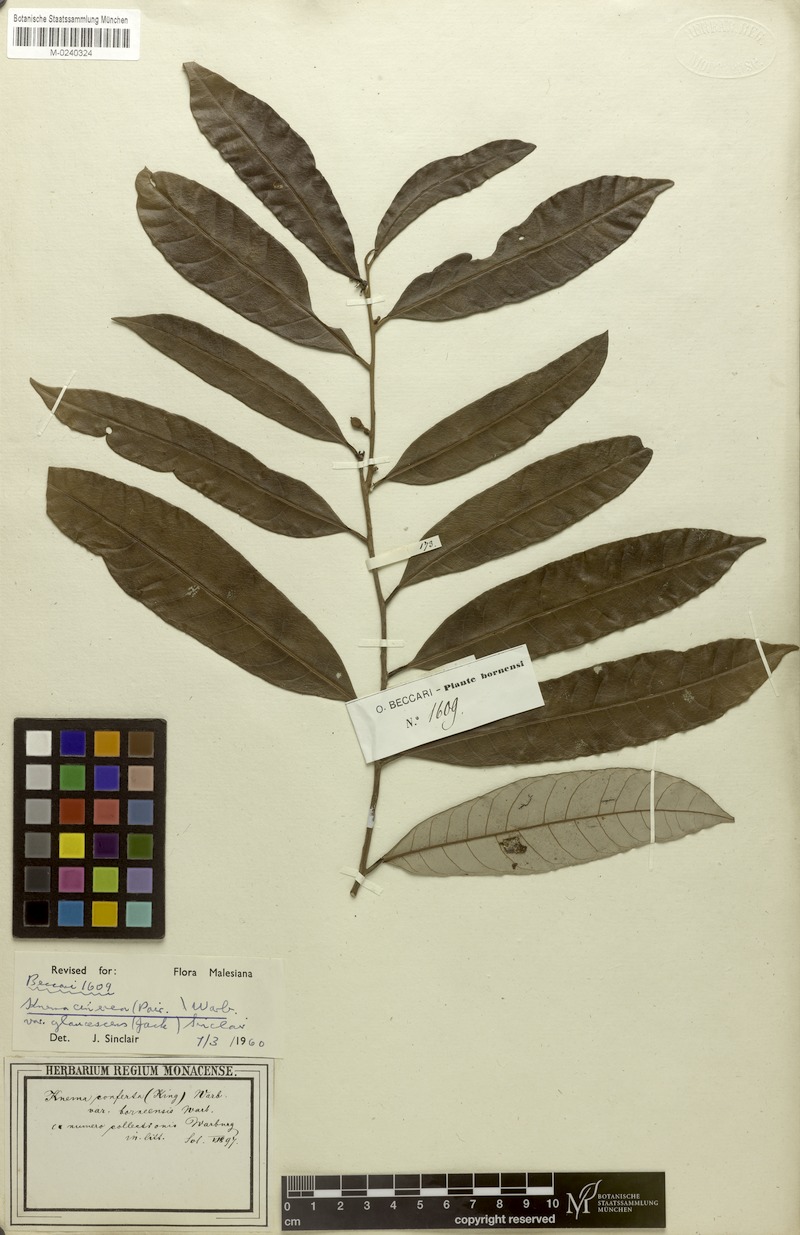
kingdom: Plantae
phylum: Tracheophyta
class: Magnoliopsida
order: Magnoliales
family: Myristicaceae
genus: Knema
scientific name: Knema cinerea
